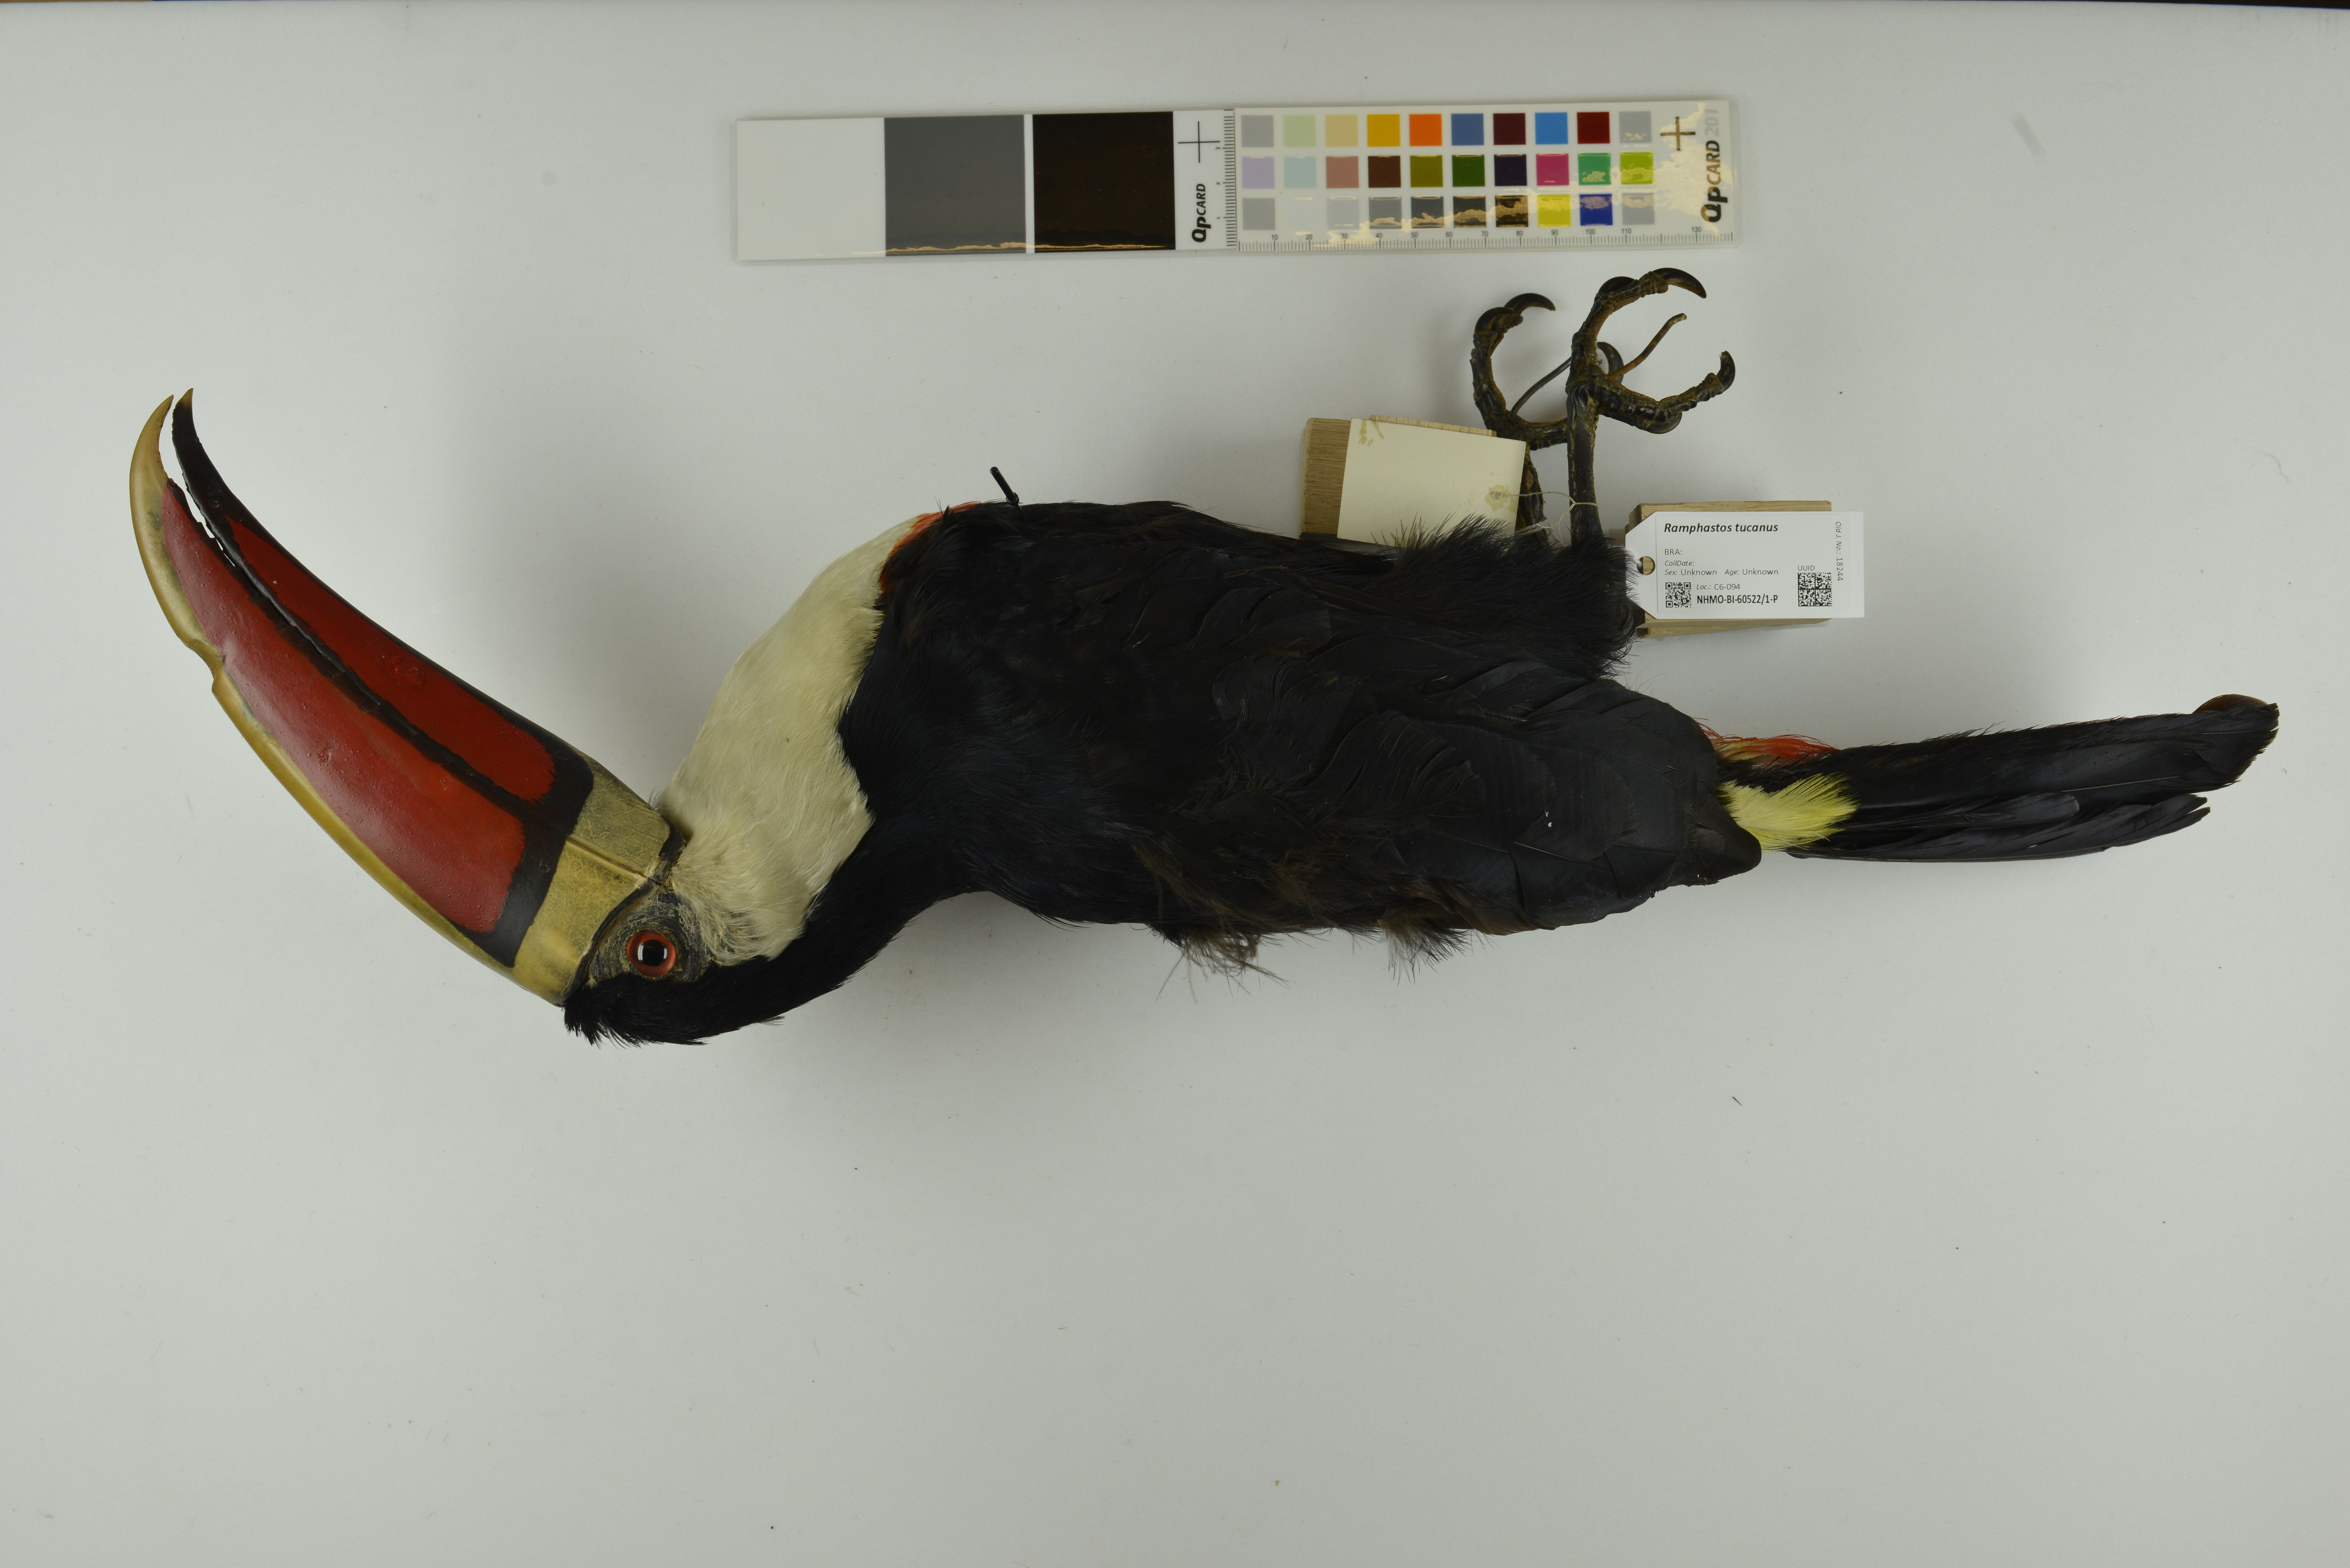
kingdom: Animalia
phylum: Chordata
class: Aves
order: Piciformes
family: Ramphastidae
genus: Ramphastos
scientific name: Ramphastos tucanus
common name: White-throated toucan
